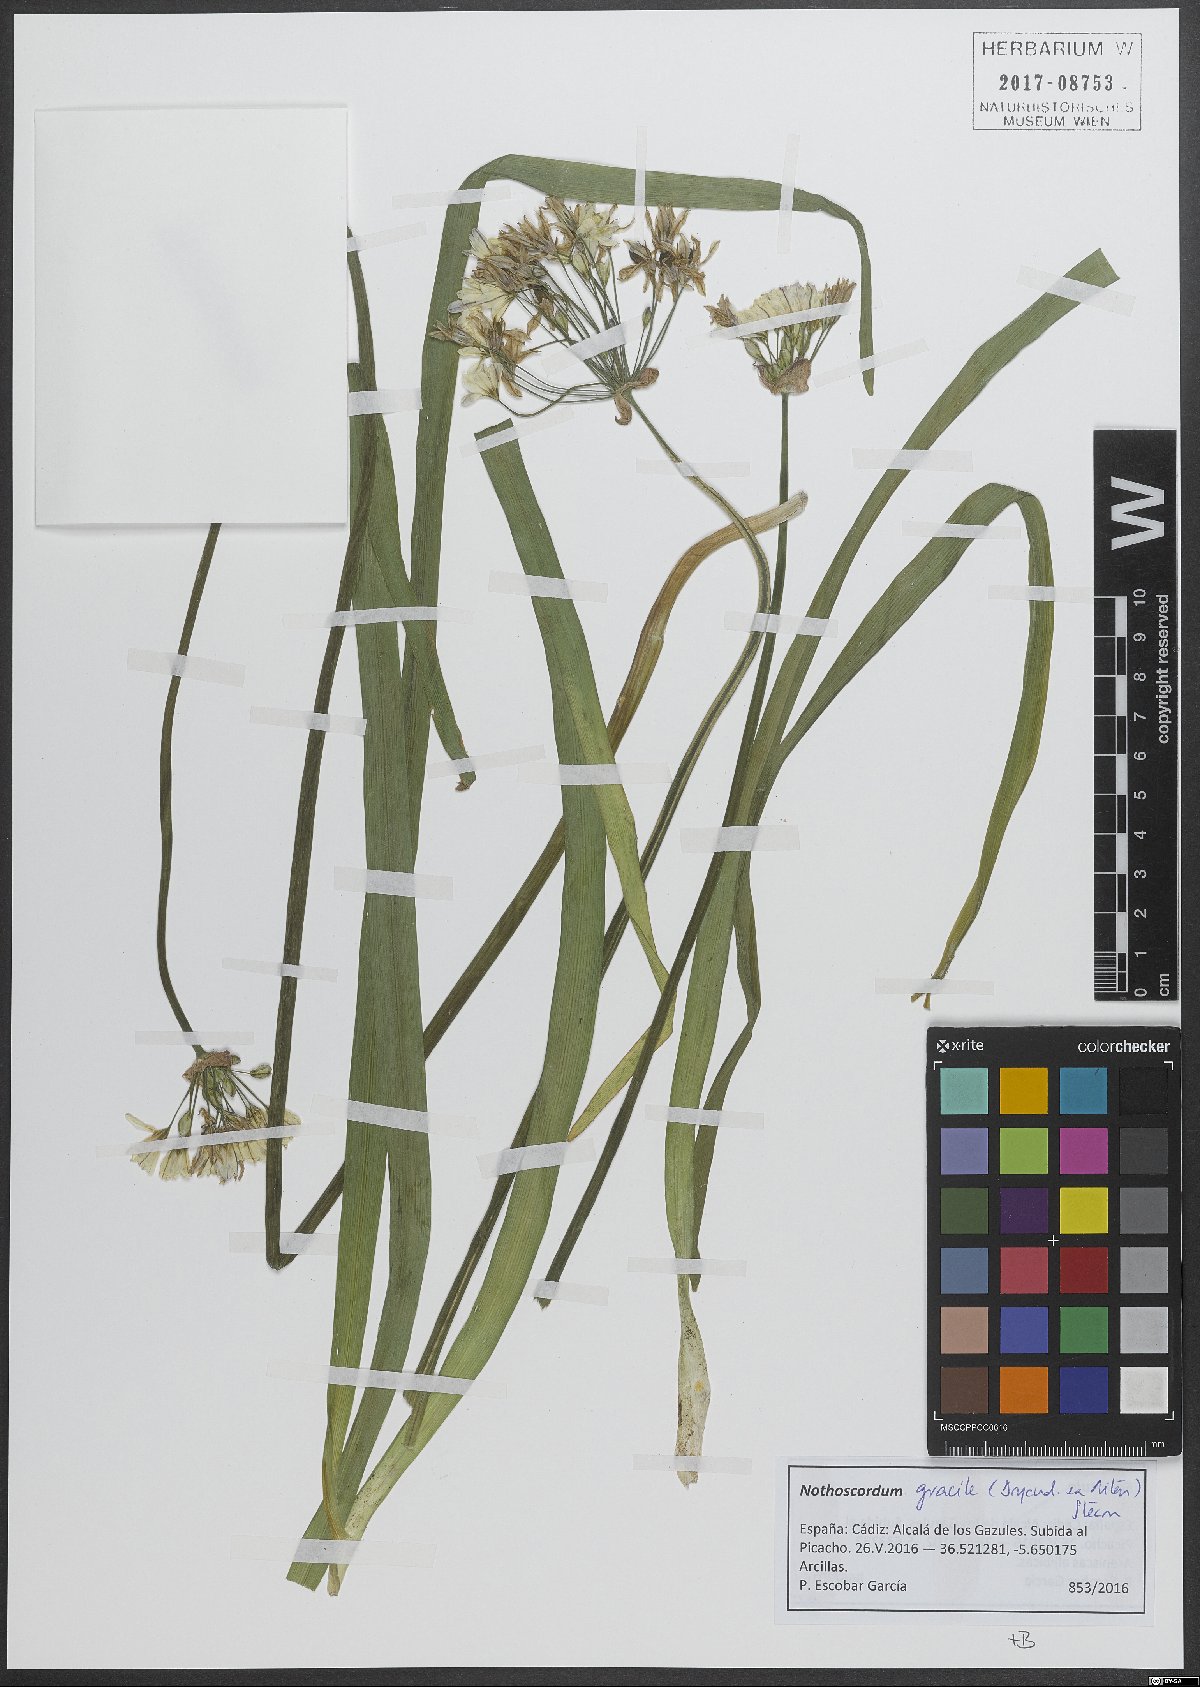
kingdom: Plantae
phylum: Tracheophyta
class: Liliopsida
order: Asparagales
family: Amaryllidaceae
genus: Nothoscordum
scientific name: Nothoscordum gracile
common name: Slender false garlic
